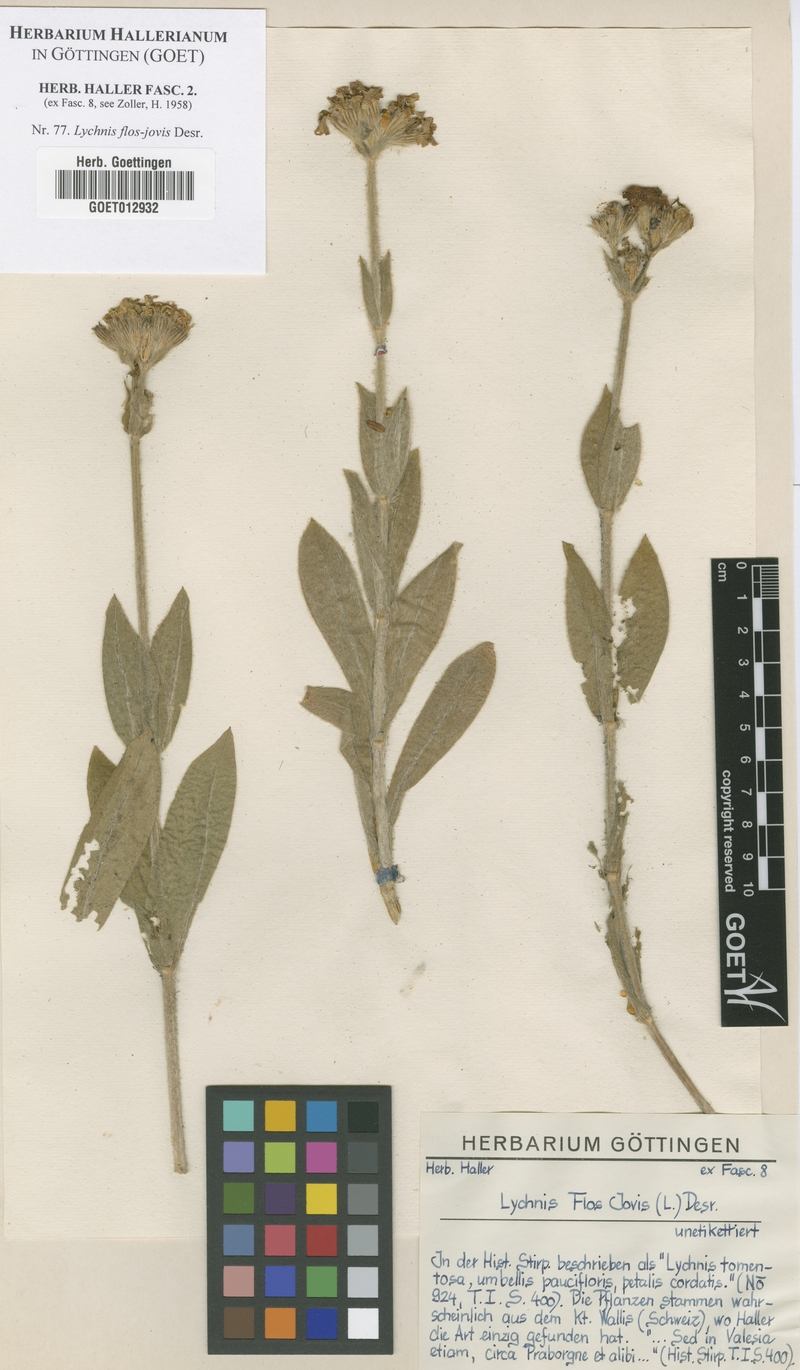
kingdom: Plantae
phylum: Tracheophyta
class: Magnoliopsida
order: Caryophyllales
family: Caryophyllaceae
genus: Silene
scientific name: Silene flos-jovis
